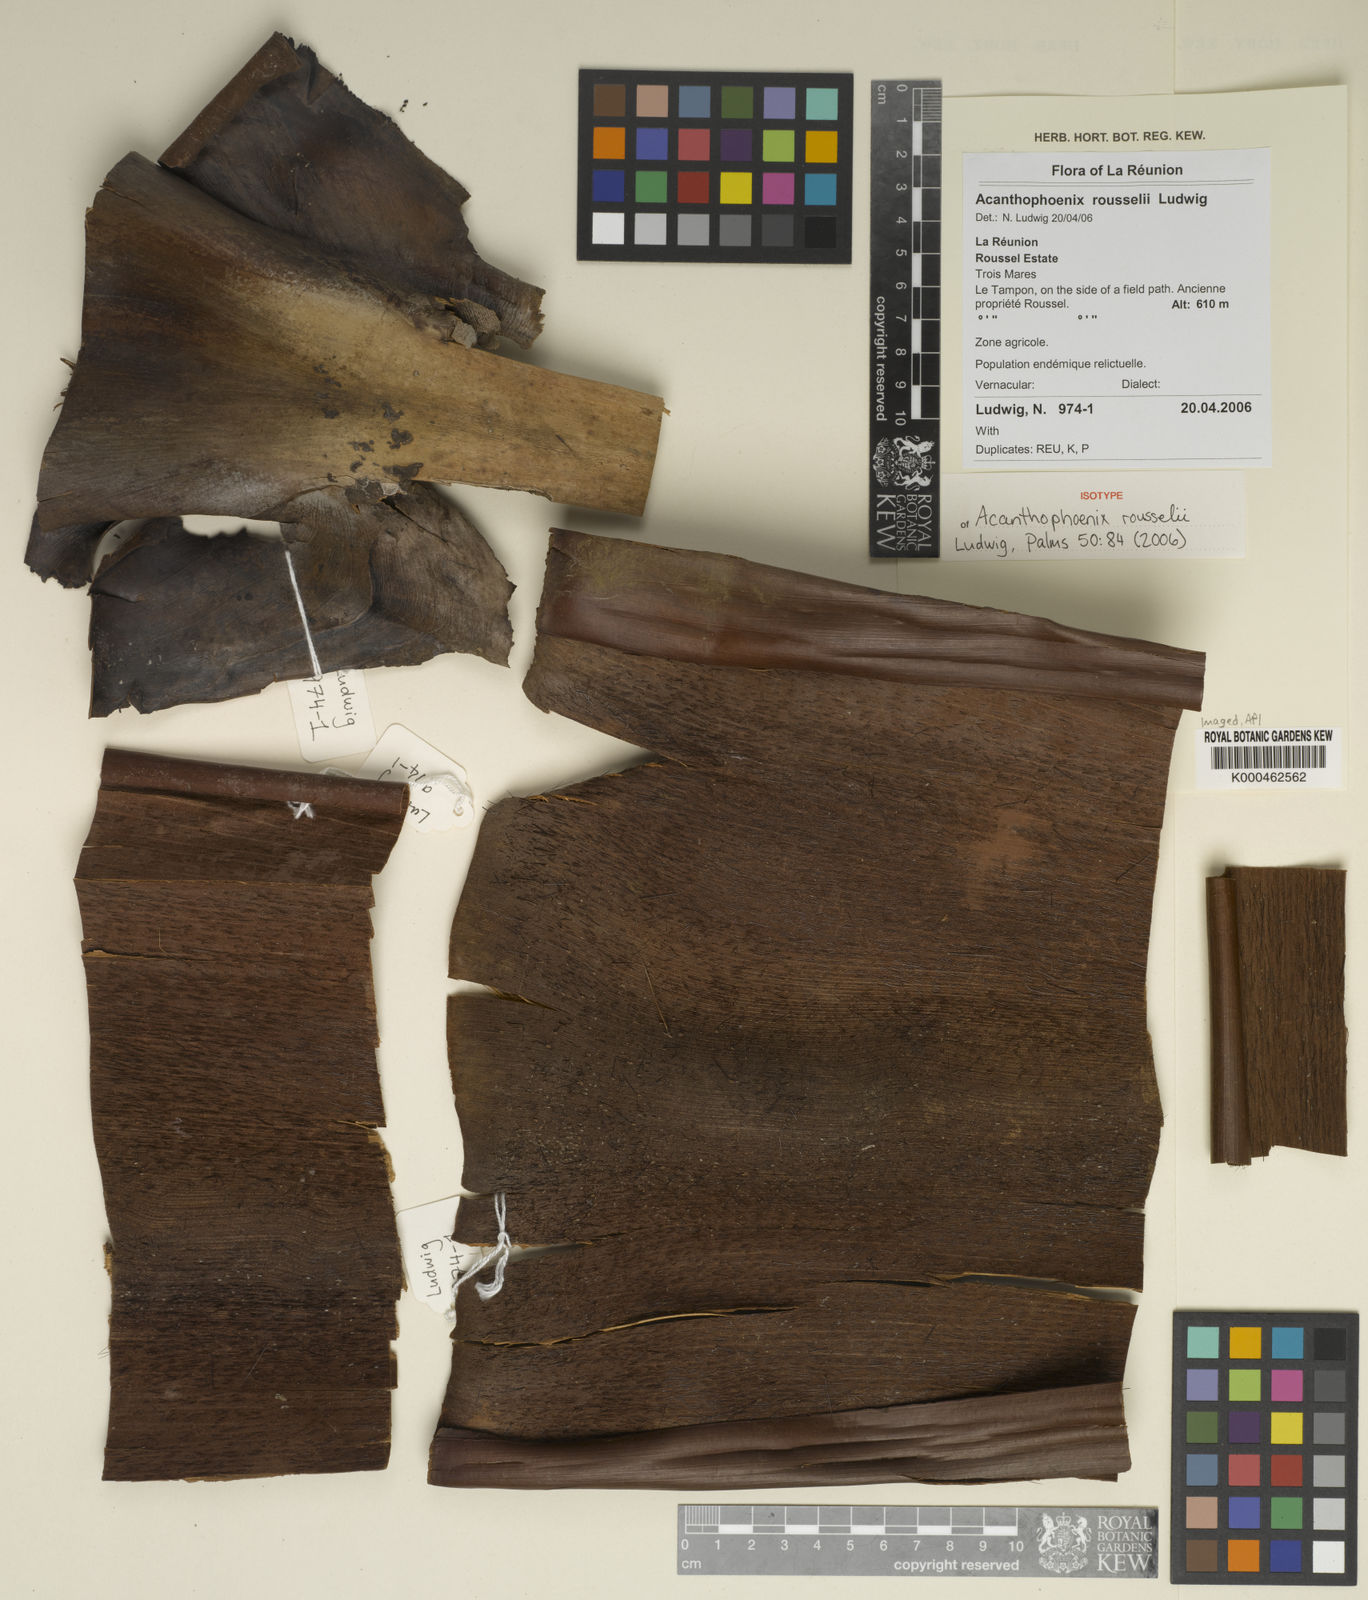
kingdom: Plantae
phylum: Tracheophyta
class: Liliopsida
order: Arecales
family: Arecaceae
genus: Acanthophoenix
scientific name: Acanthophoenix rousselii
